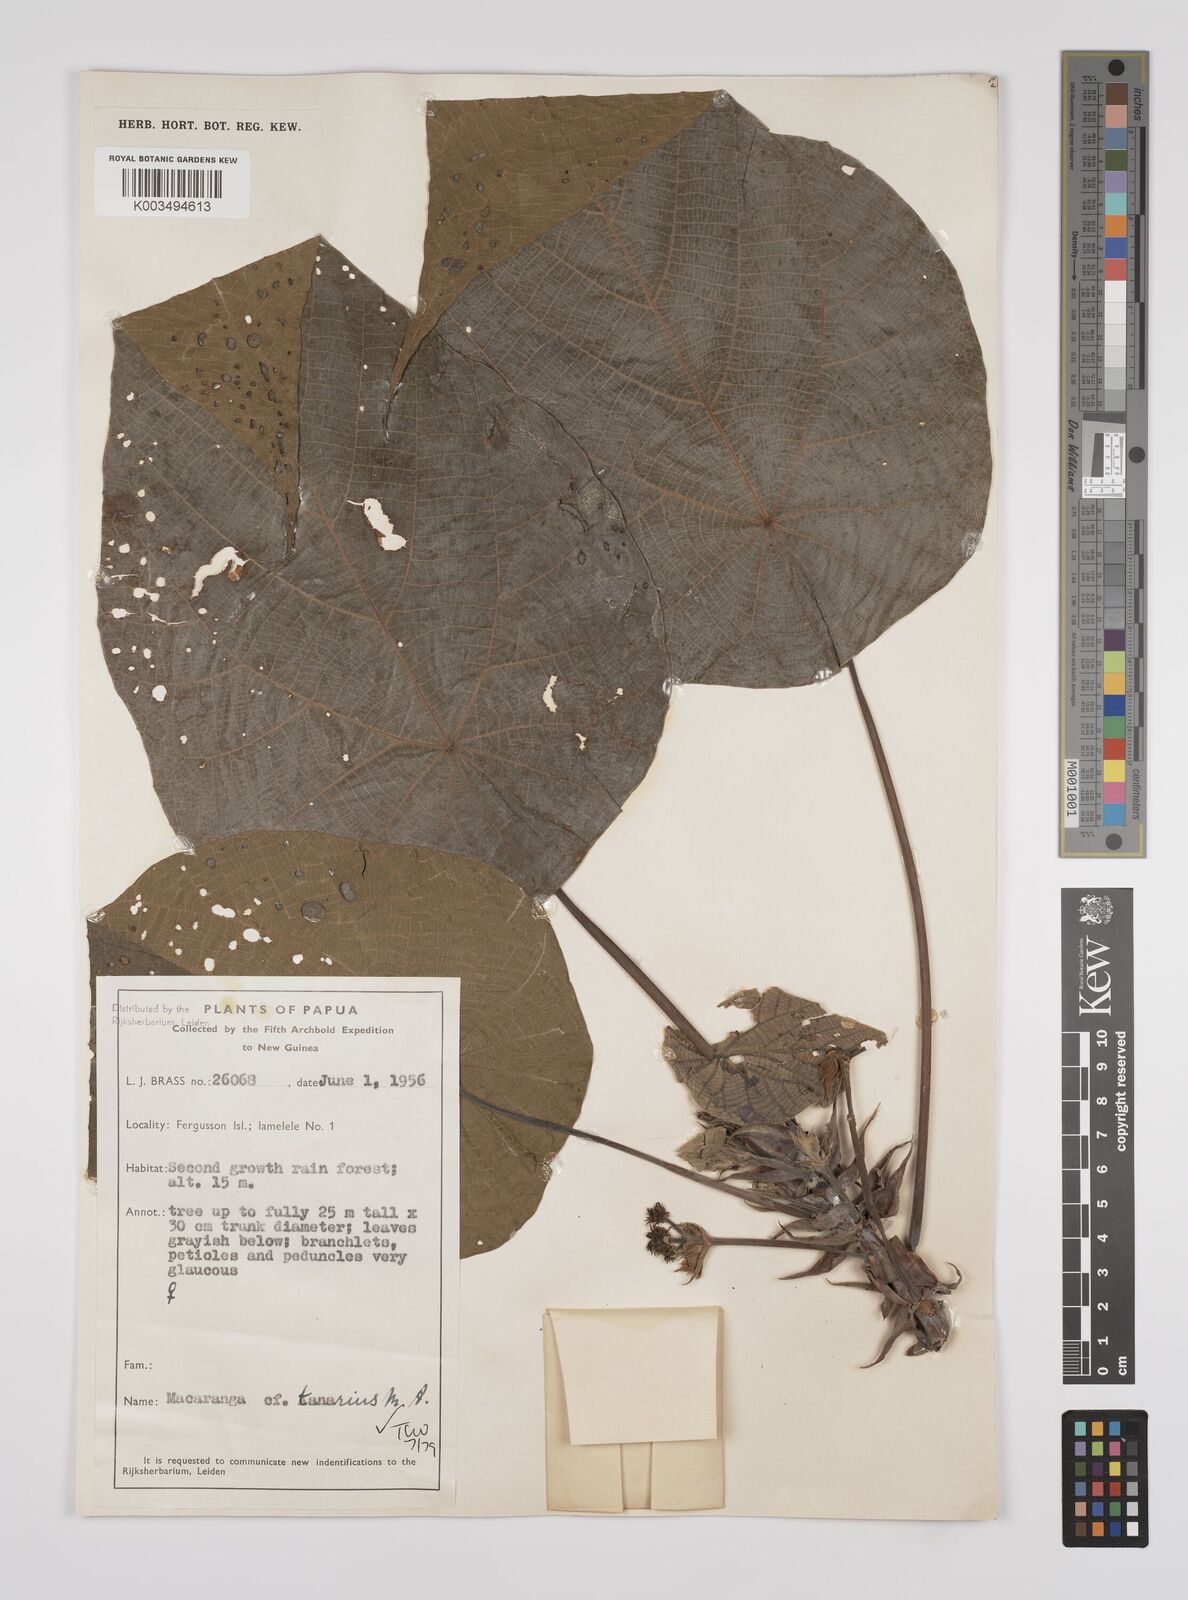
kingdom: Plantae
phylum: Tracheophyta
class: Magnoliopsida
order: Malpighiales
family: Euphorbiaceae
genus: Macaranga
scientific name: Macaranga tanarius
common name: Parasol leaf tree
